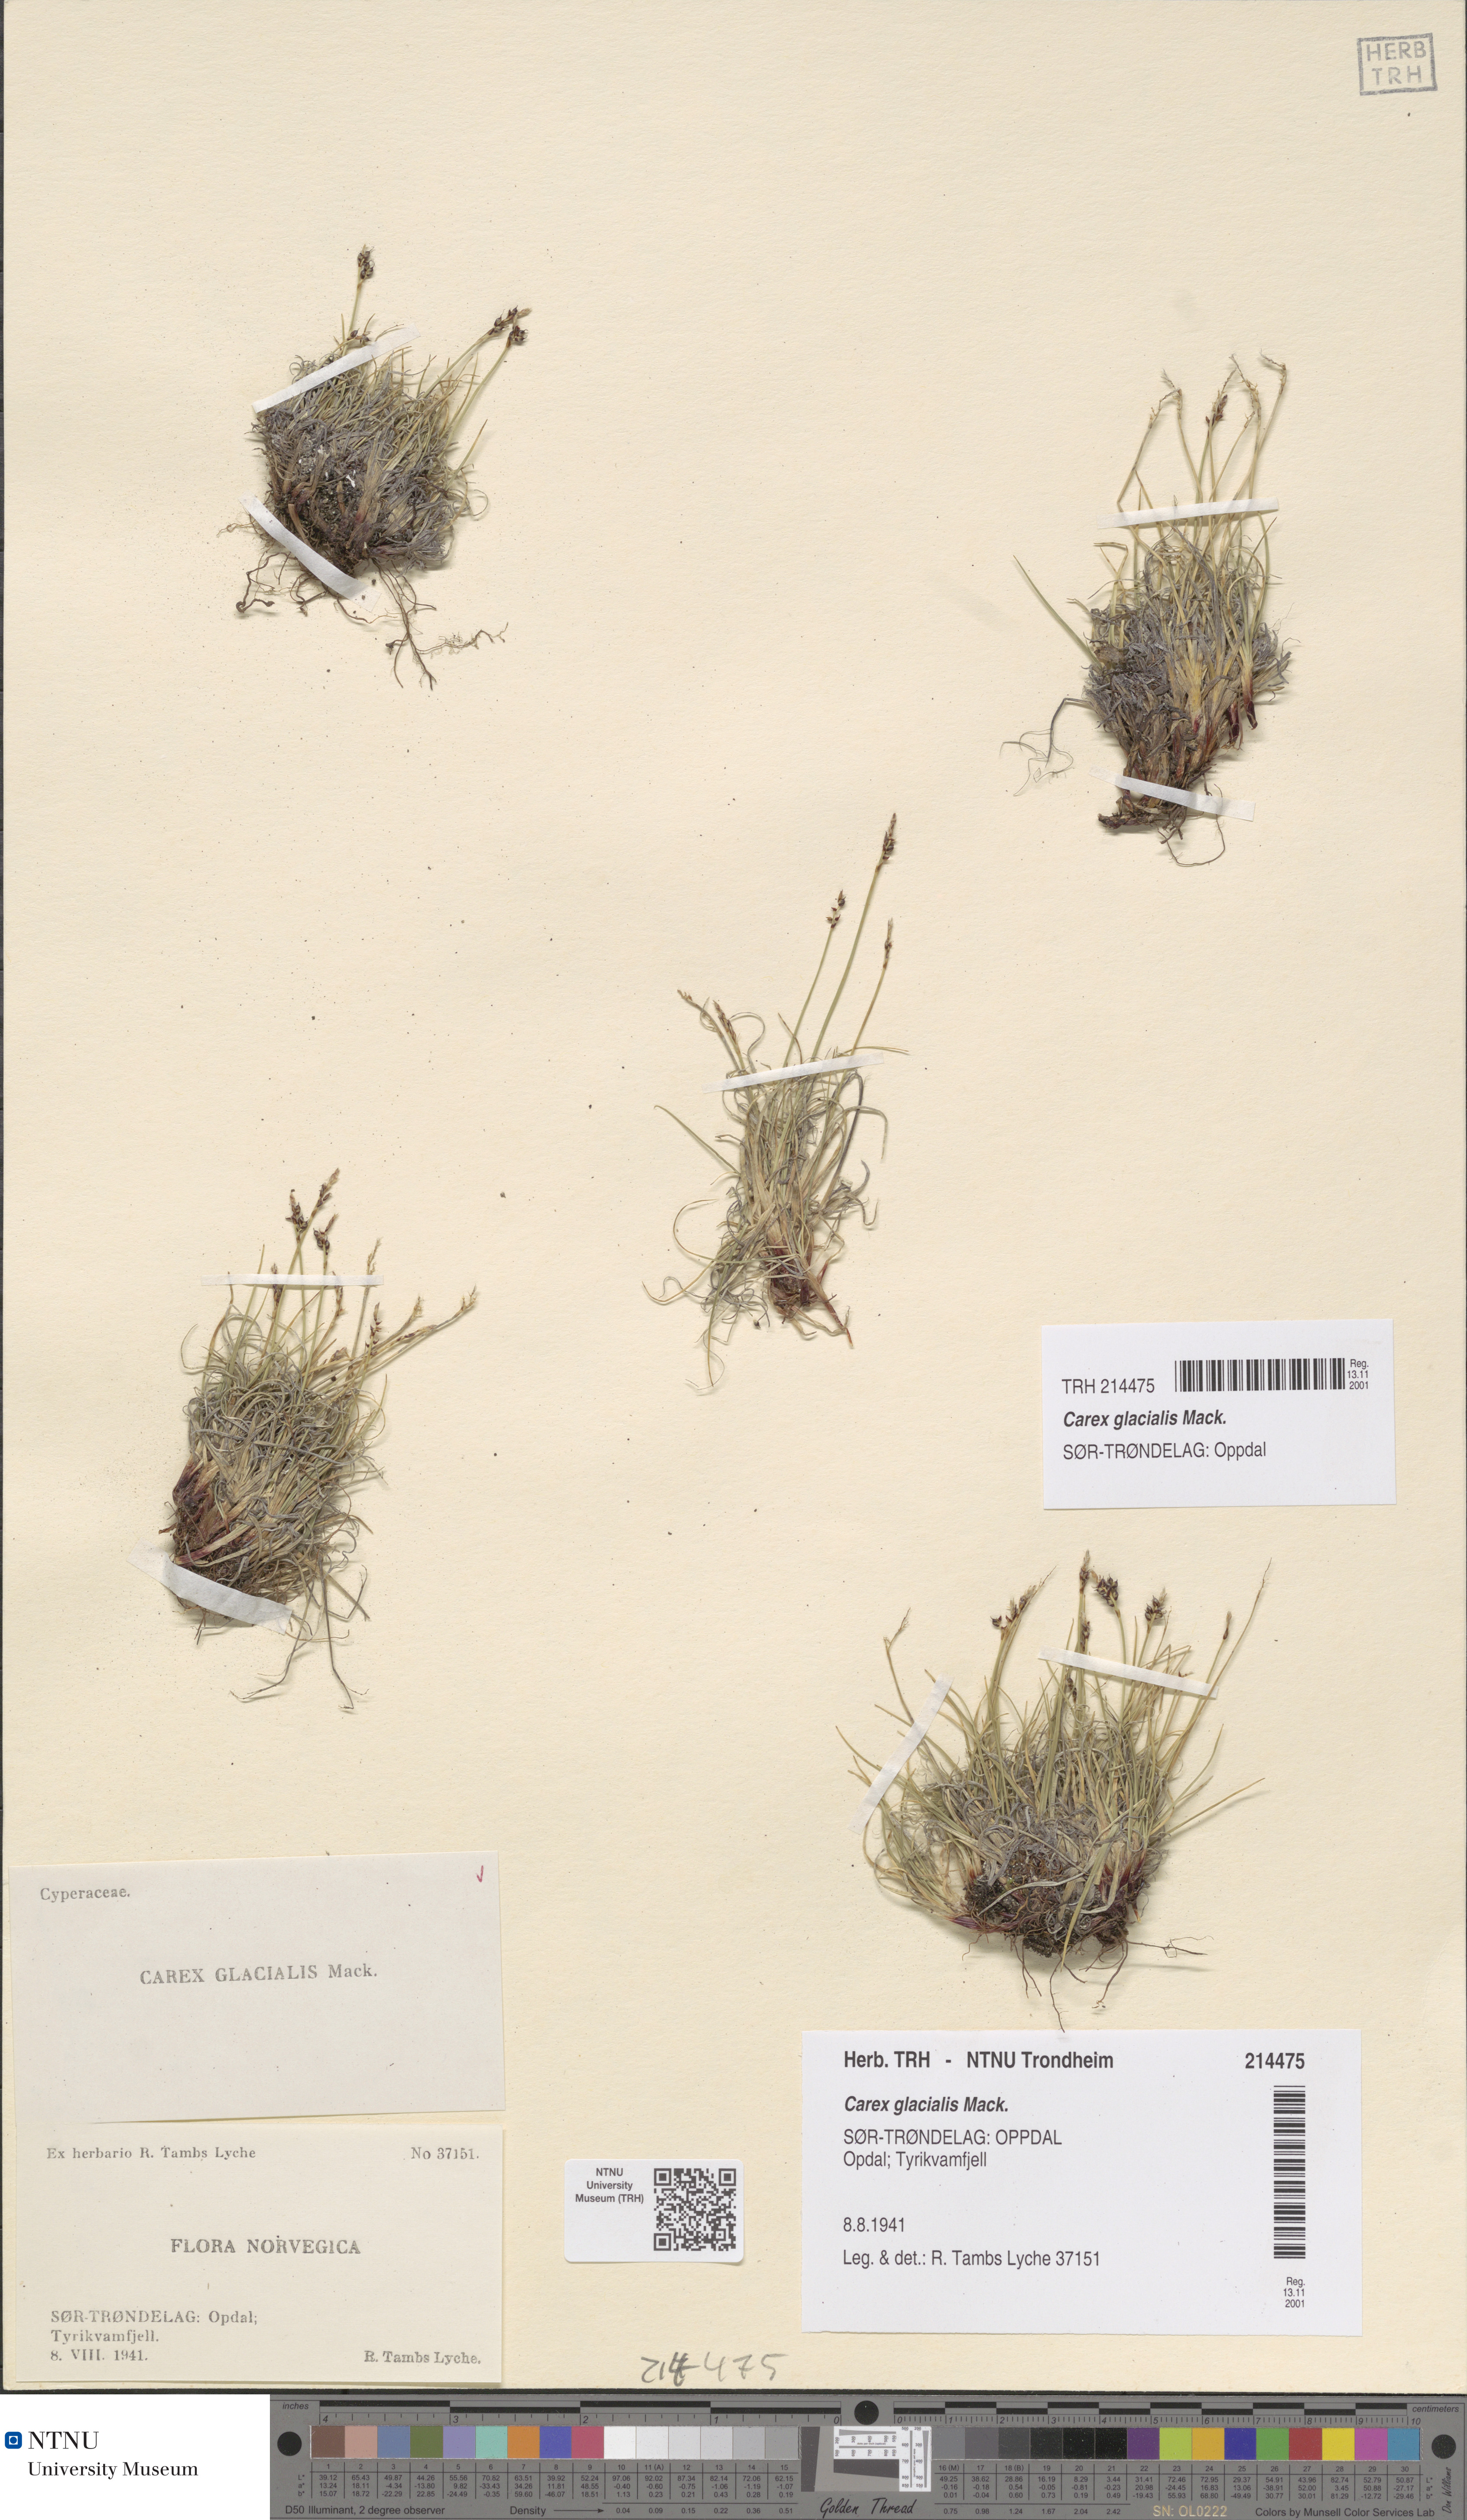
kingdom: Plantae
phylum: Tracheophyta
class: Liliopsida
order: Poales
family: Cyperaceae
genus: Carex
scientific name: Carex glacialis
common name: Newfoundland sedge
